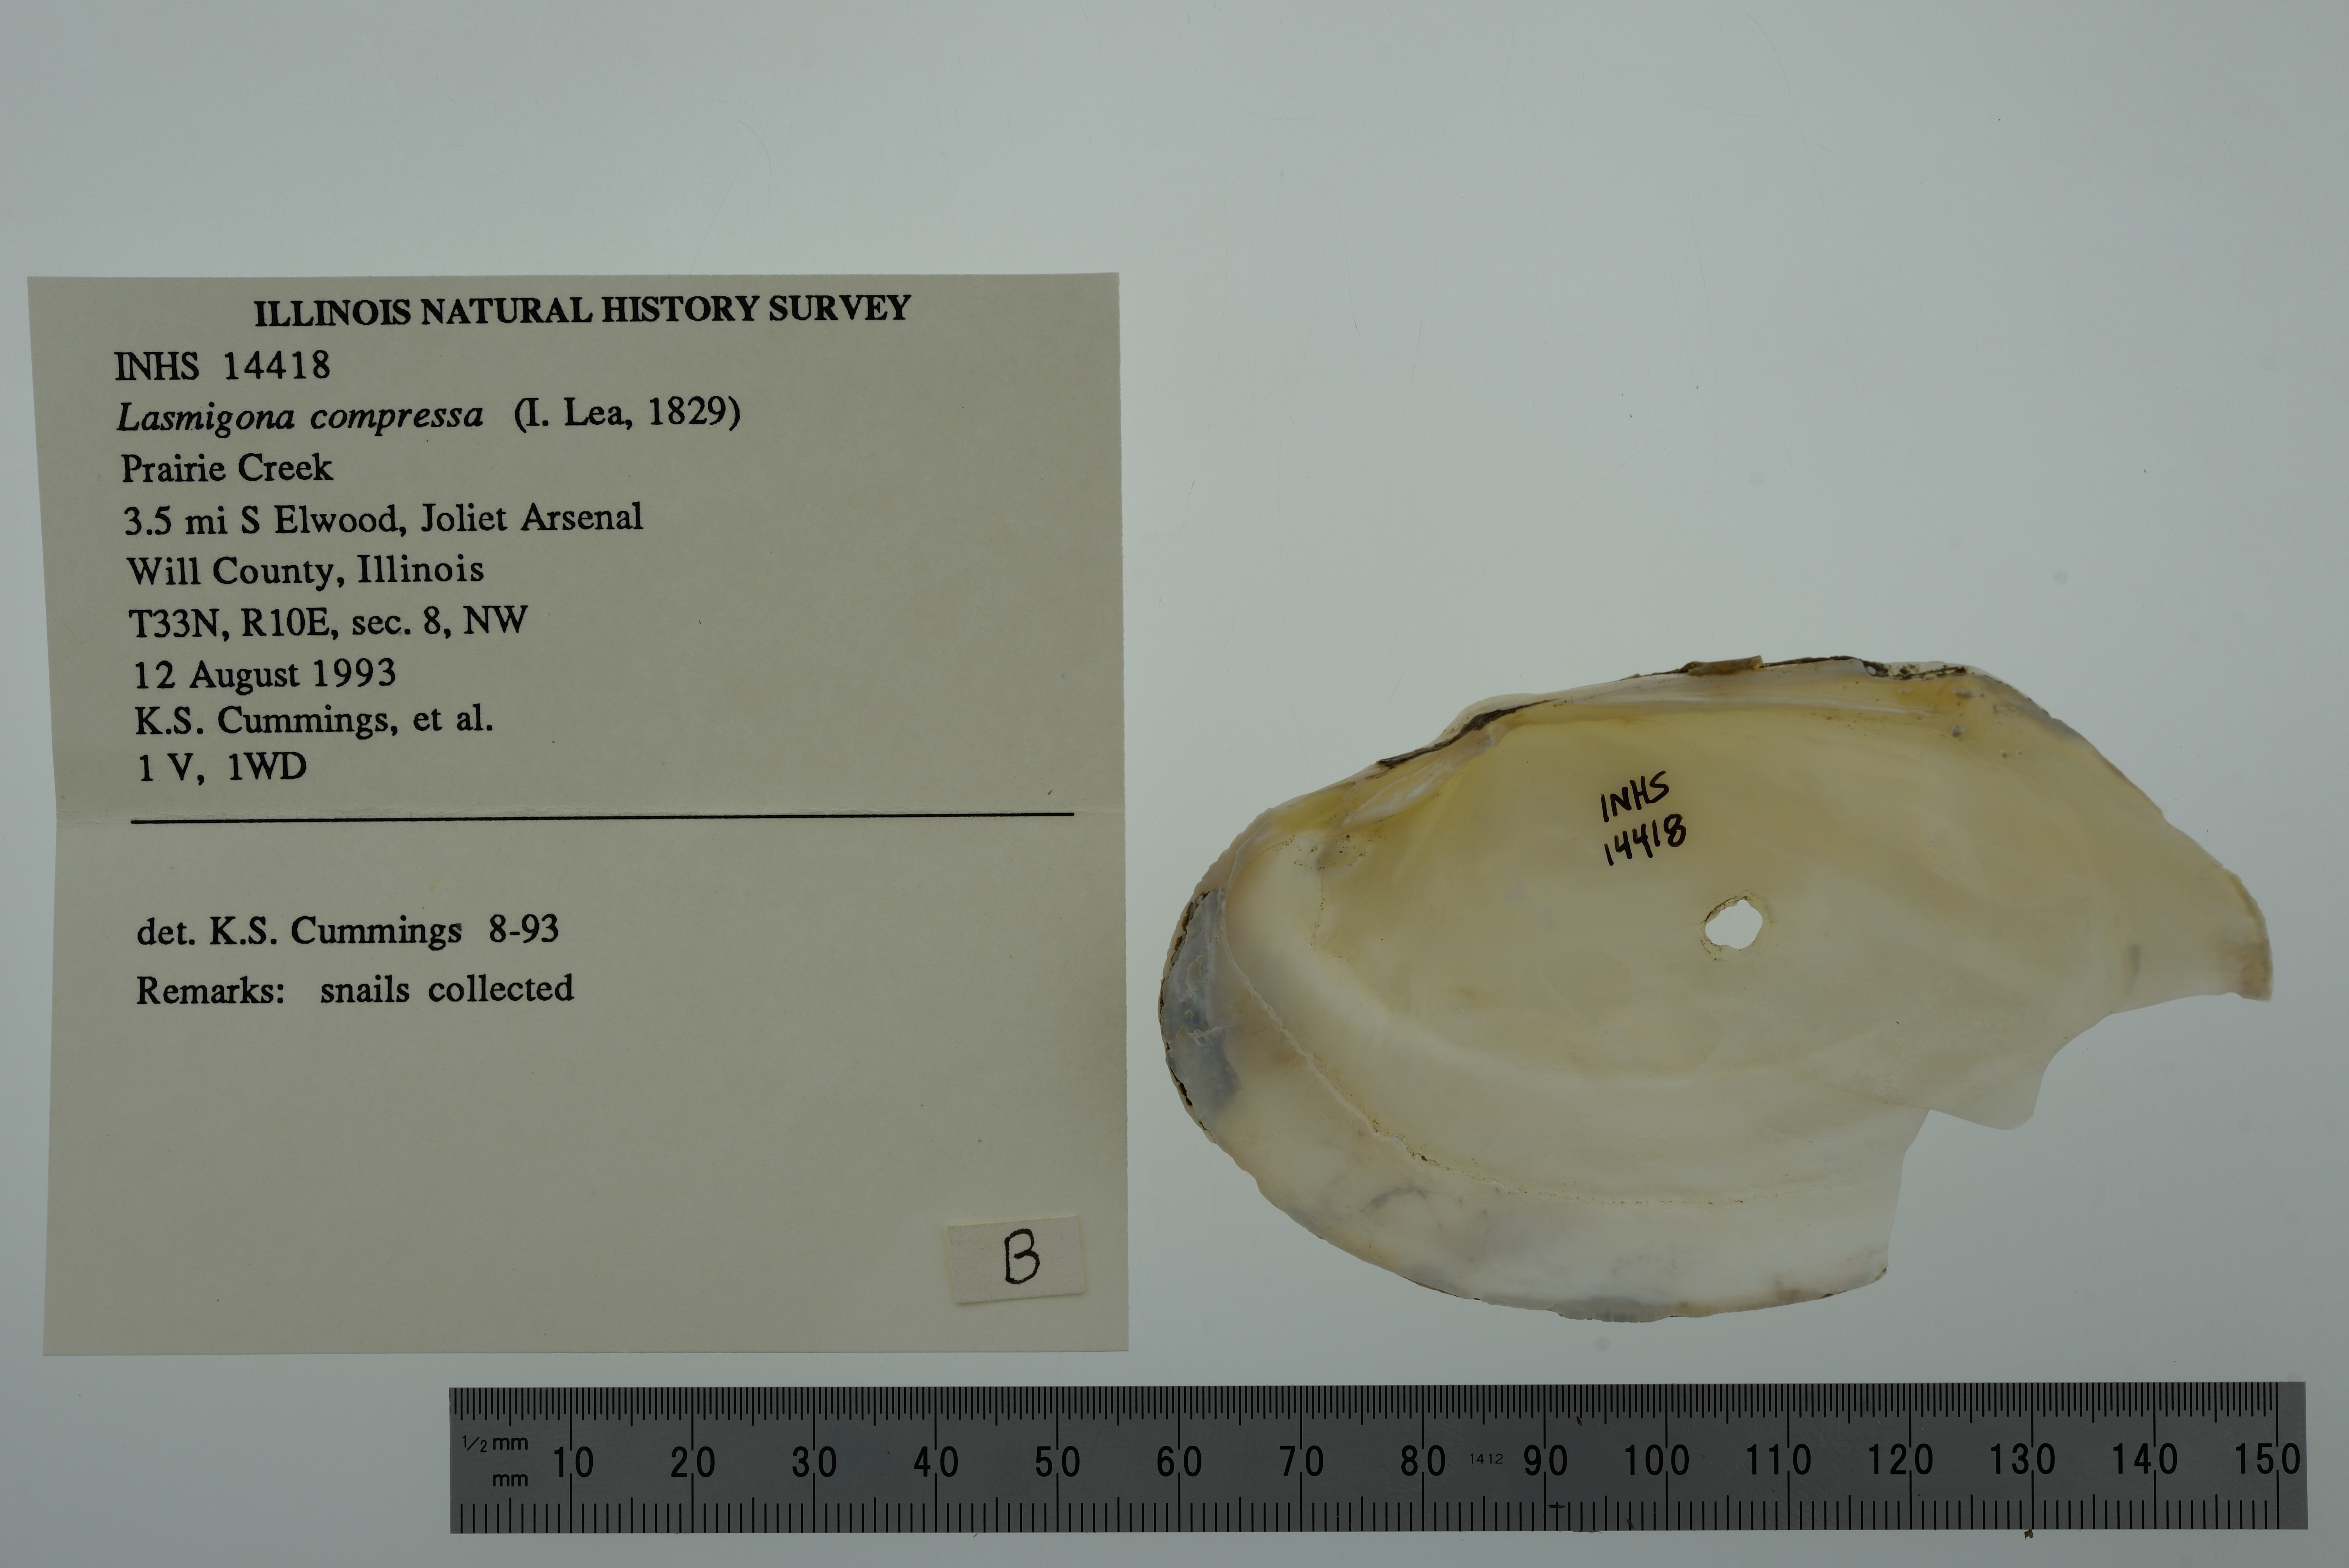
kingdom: Animalia
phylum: Mollusca
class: Bivalvia
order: Unionida
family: Unionidae
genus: Lasmigona
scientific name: Lasmigona compressa
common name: Creek heelsplitter
